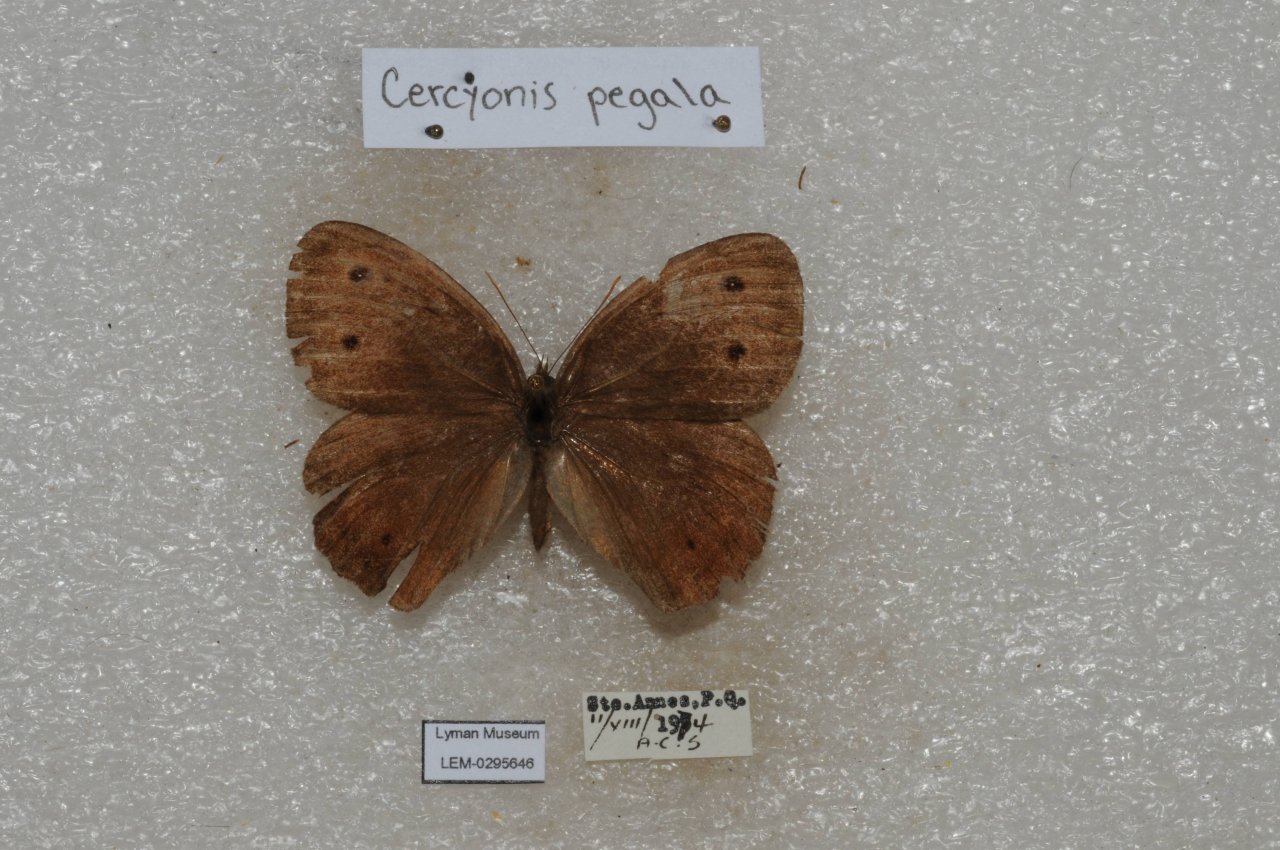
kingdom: Animalia
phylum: Arthropoda
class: Insecta
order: Lepidoptera
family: Nymphalidae
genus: Cercyonis
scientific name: Cercyonis pegala
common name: Common Wood-Nymph
